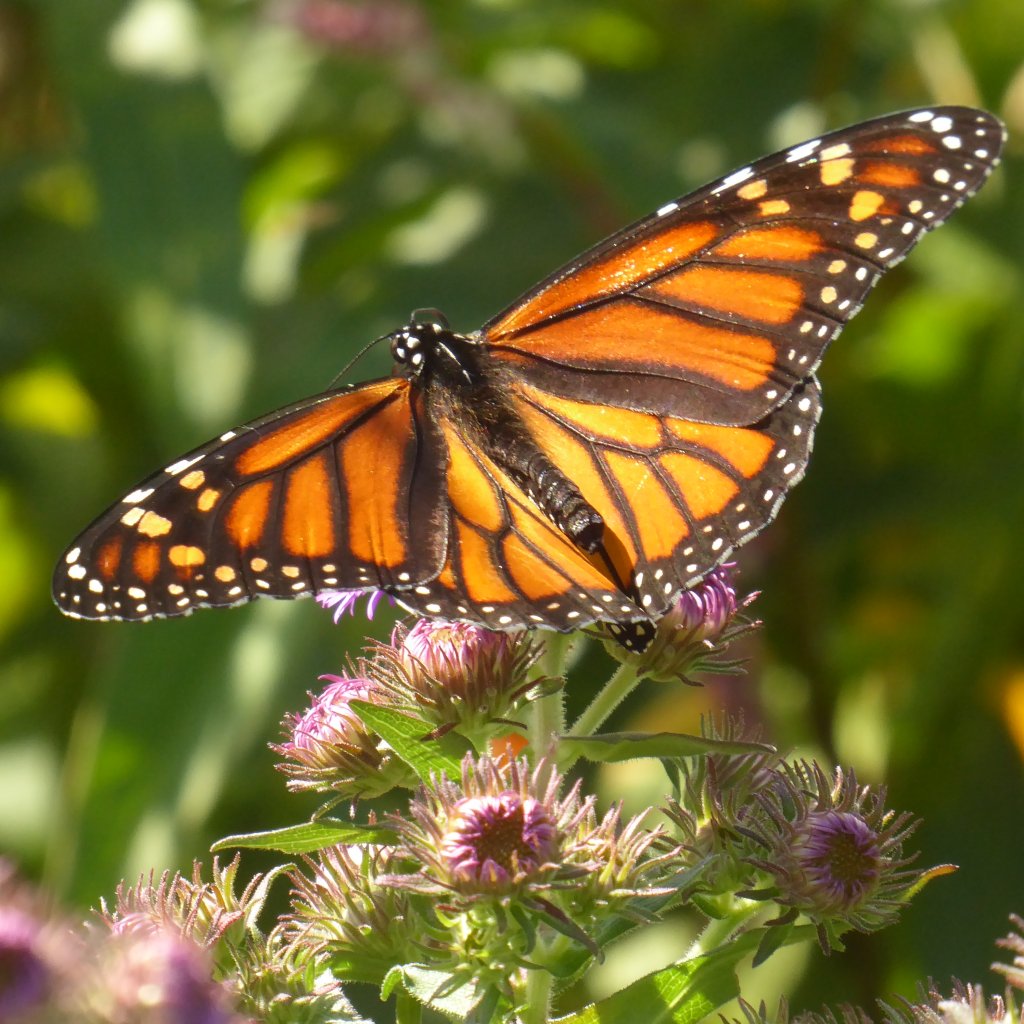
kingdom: Animalia
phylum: Arthropoda
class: Insecta
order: Lepidoptera
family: Nymphalidae
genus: Danaus
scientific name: Danaus plexippus
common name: Monarch
